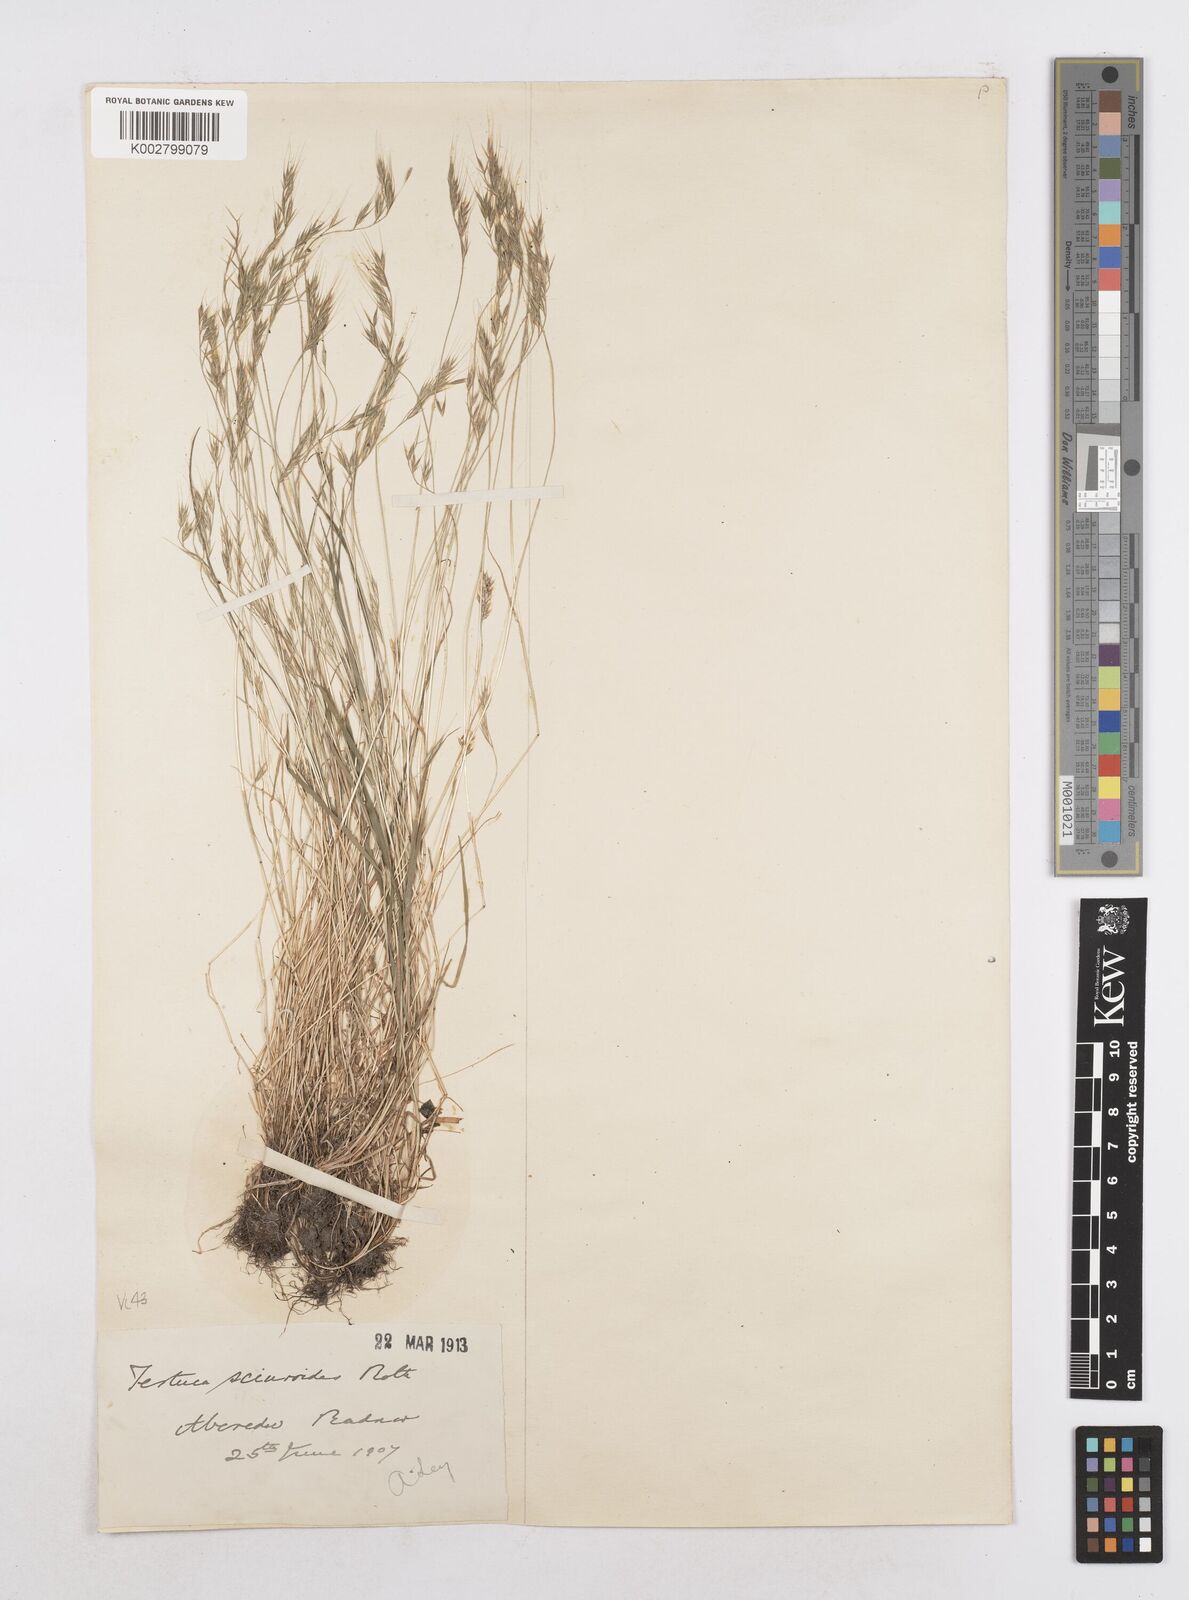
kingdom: Plantae
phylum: Tracheophyta
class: Liliopsida
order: Poales
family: Poaceae
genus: Festuca
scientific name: Festuca bromoides
